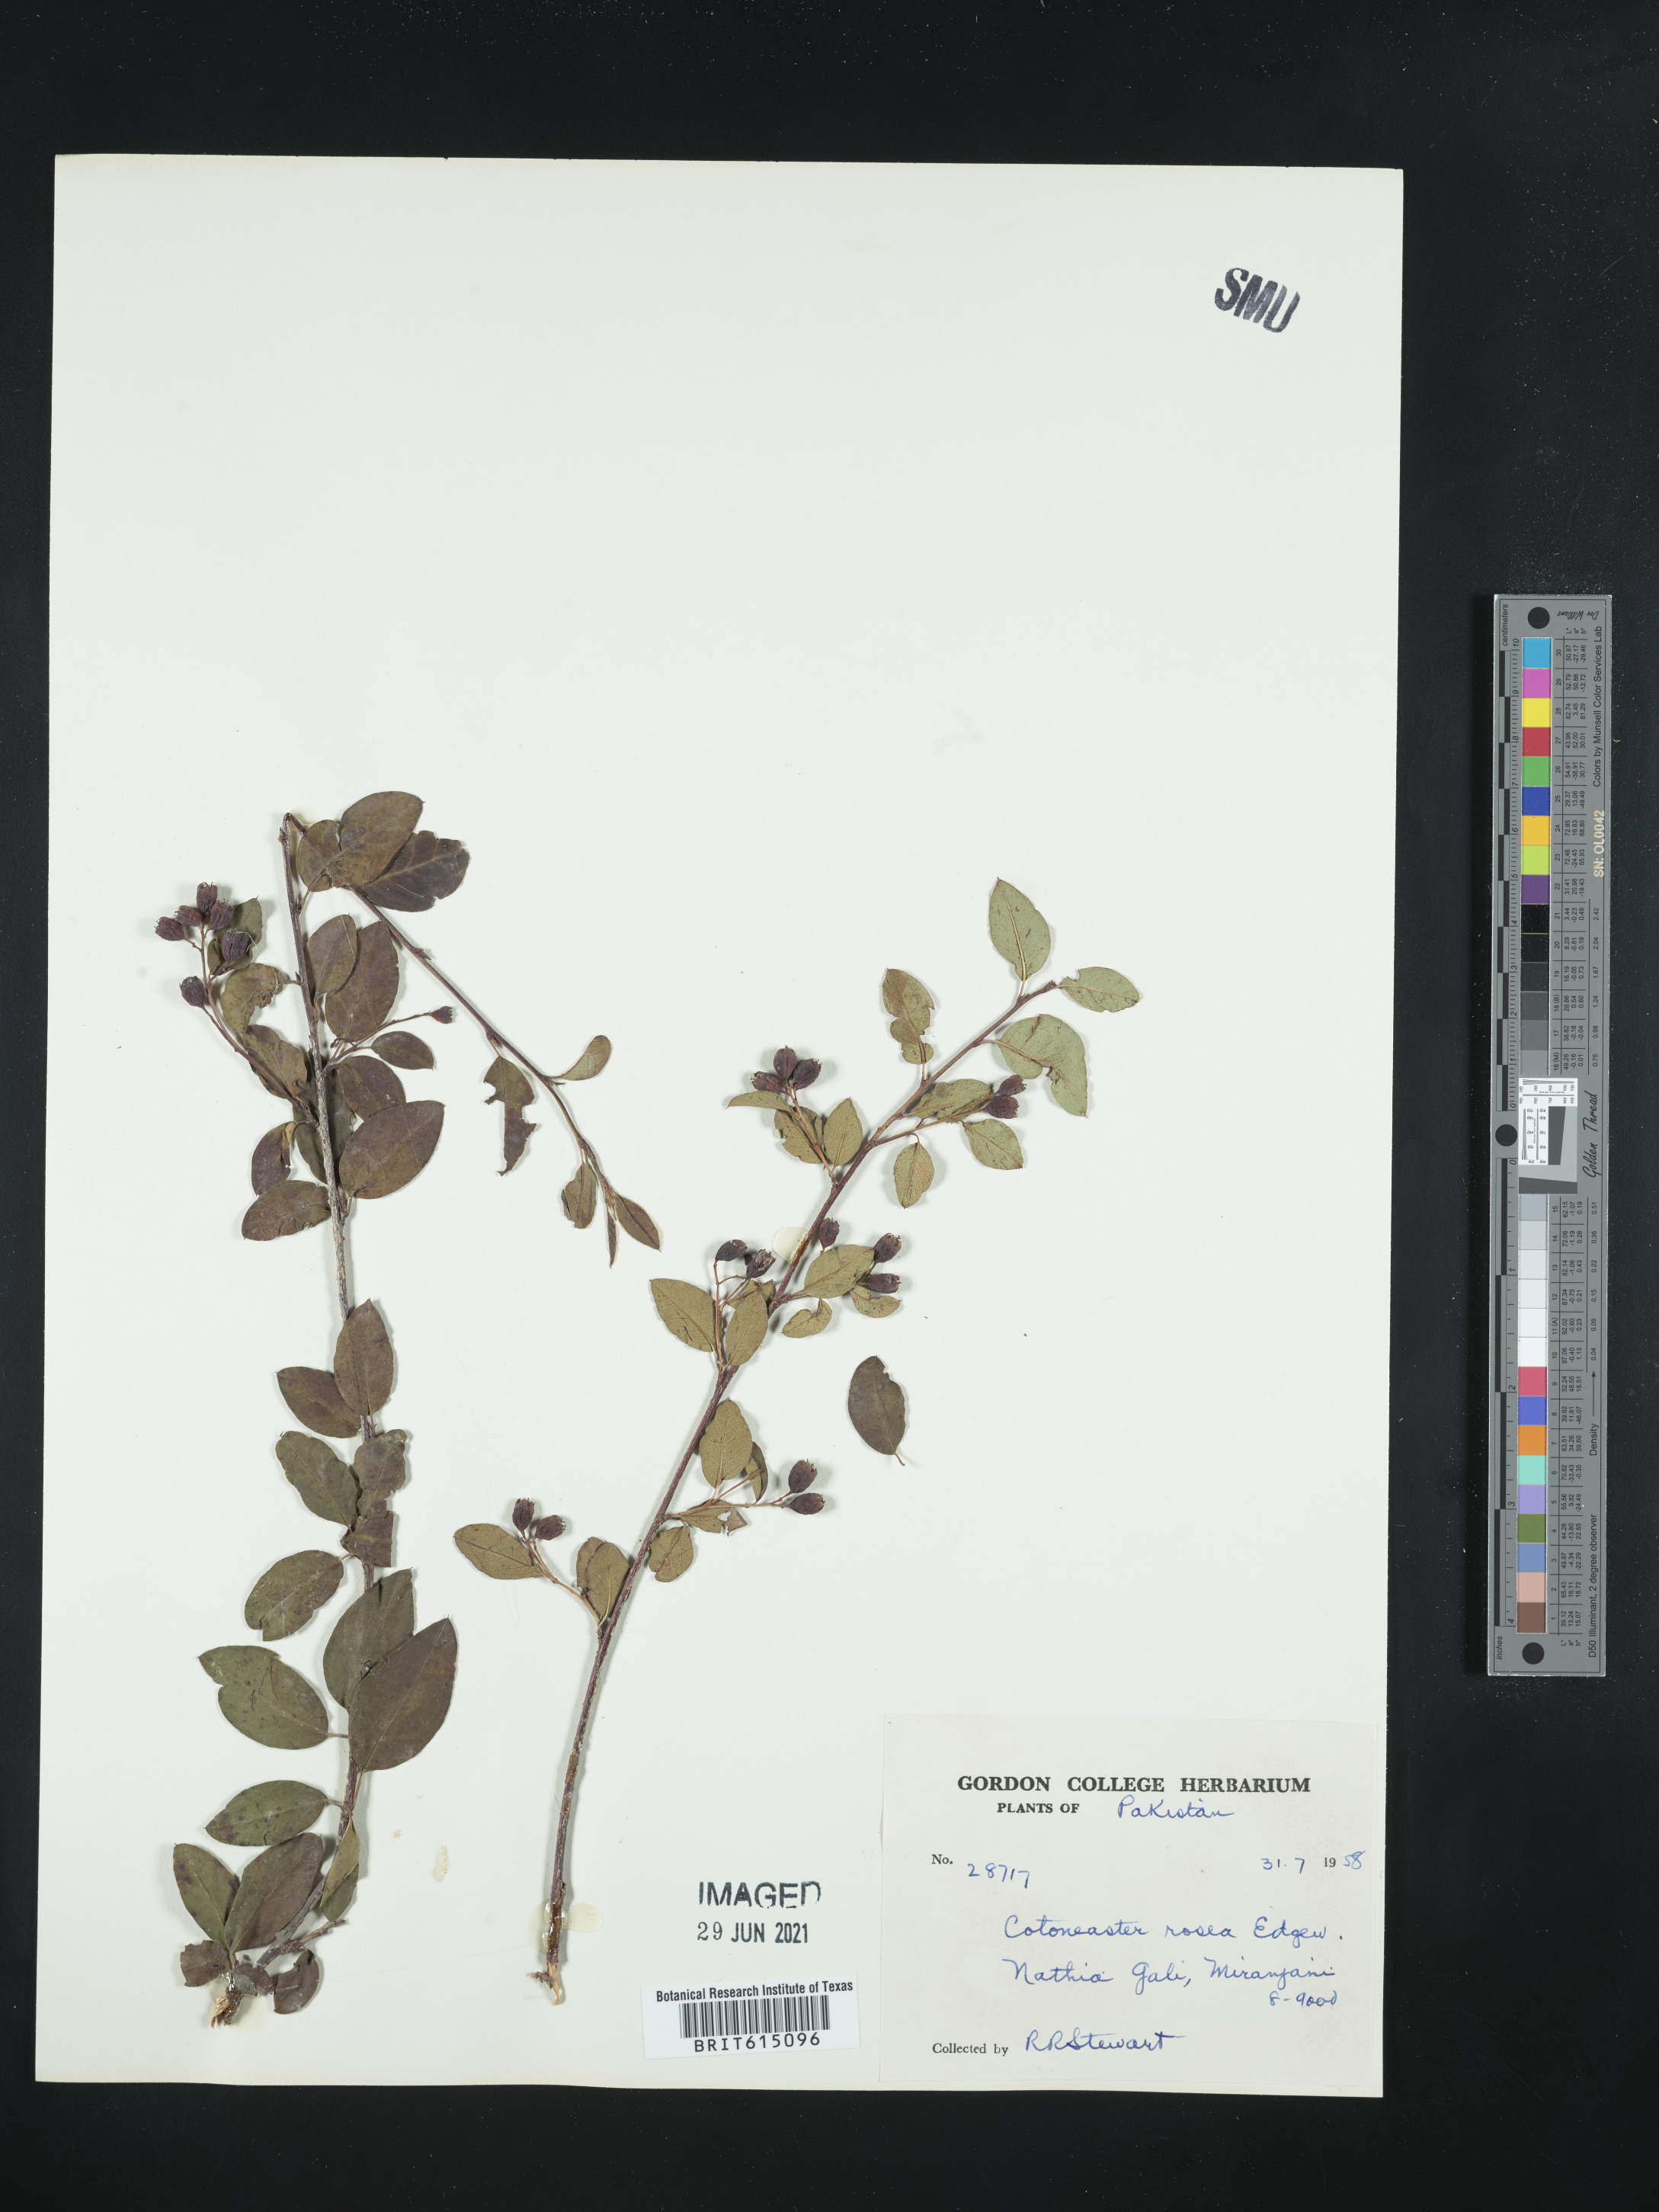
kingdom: Plantae
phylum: Tracheophyta
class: Magnoliopsida
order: Rosales
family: Rosaceae
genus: Cotoneaster
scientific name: Cotoneaster roseus
